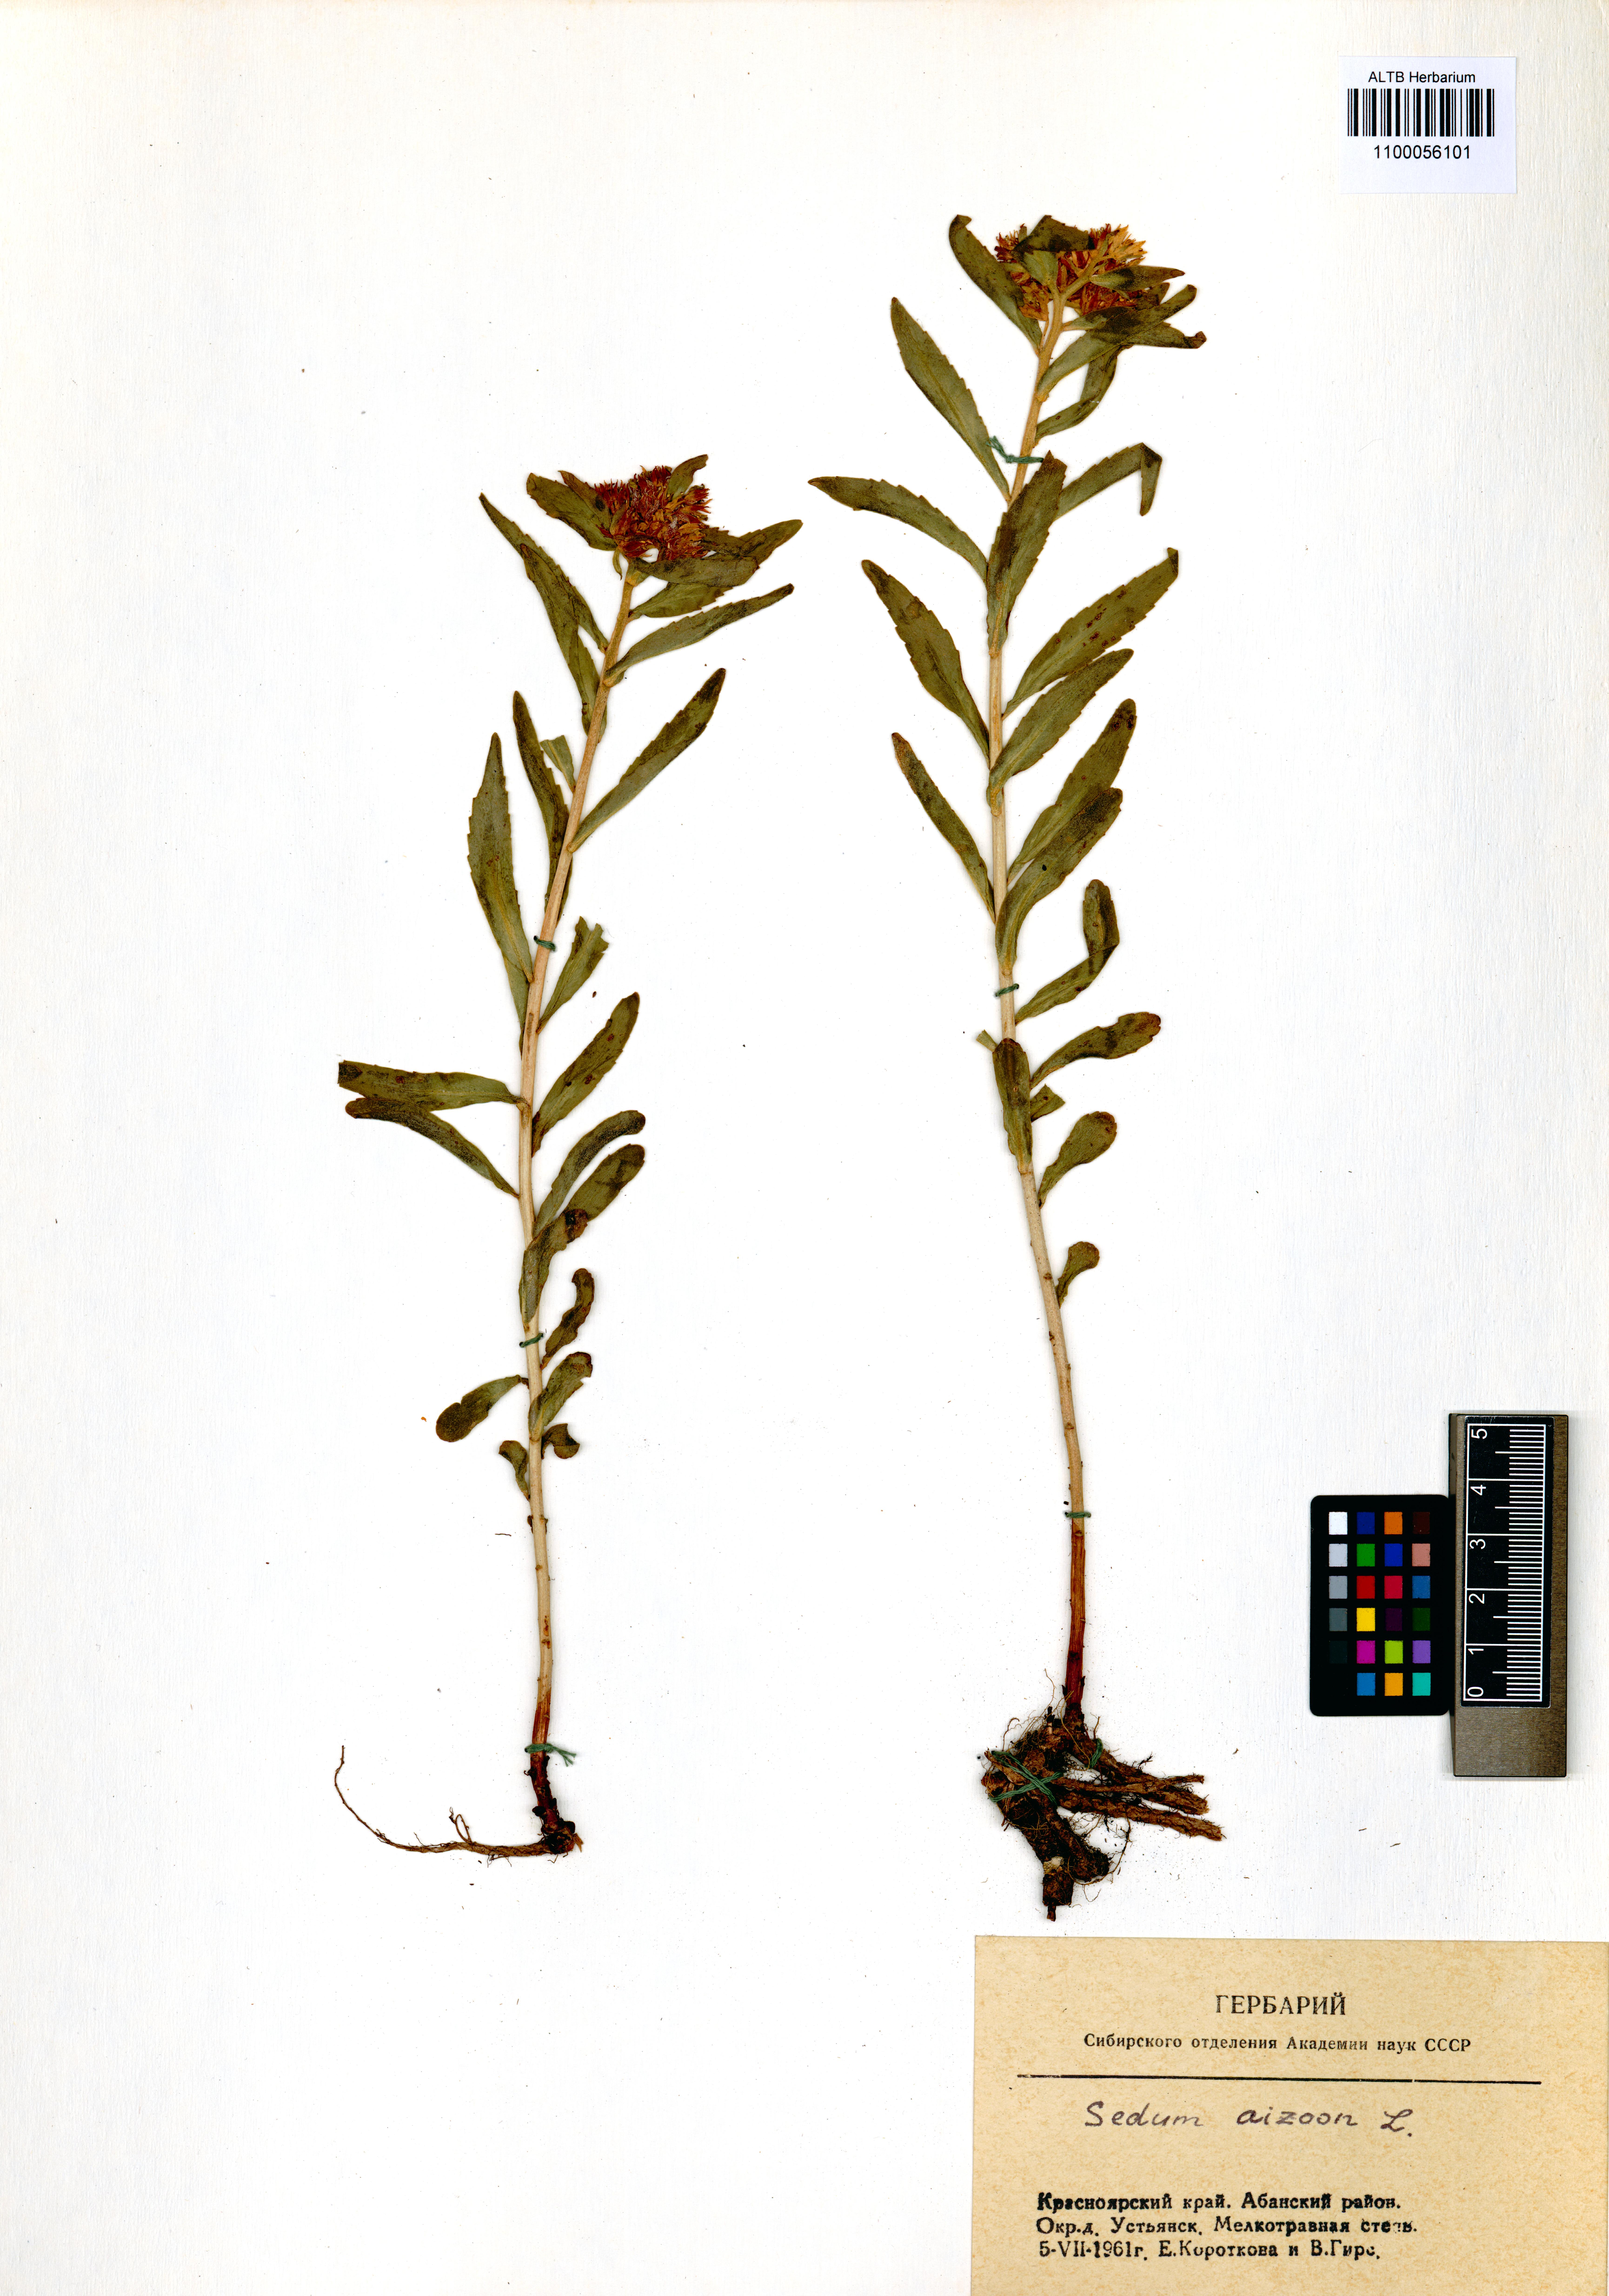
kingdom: Plantae
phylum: Tracheophyta
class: Magnoliopsida
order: Saxifragales
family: Crassulaceae
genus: Phedimus
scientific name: Phedimus aizoon
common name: Orpin aizoon
